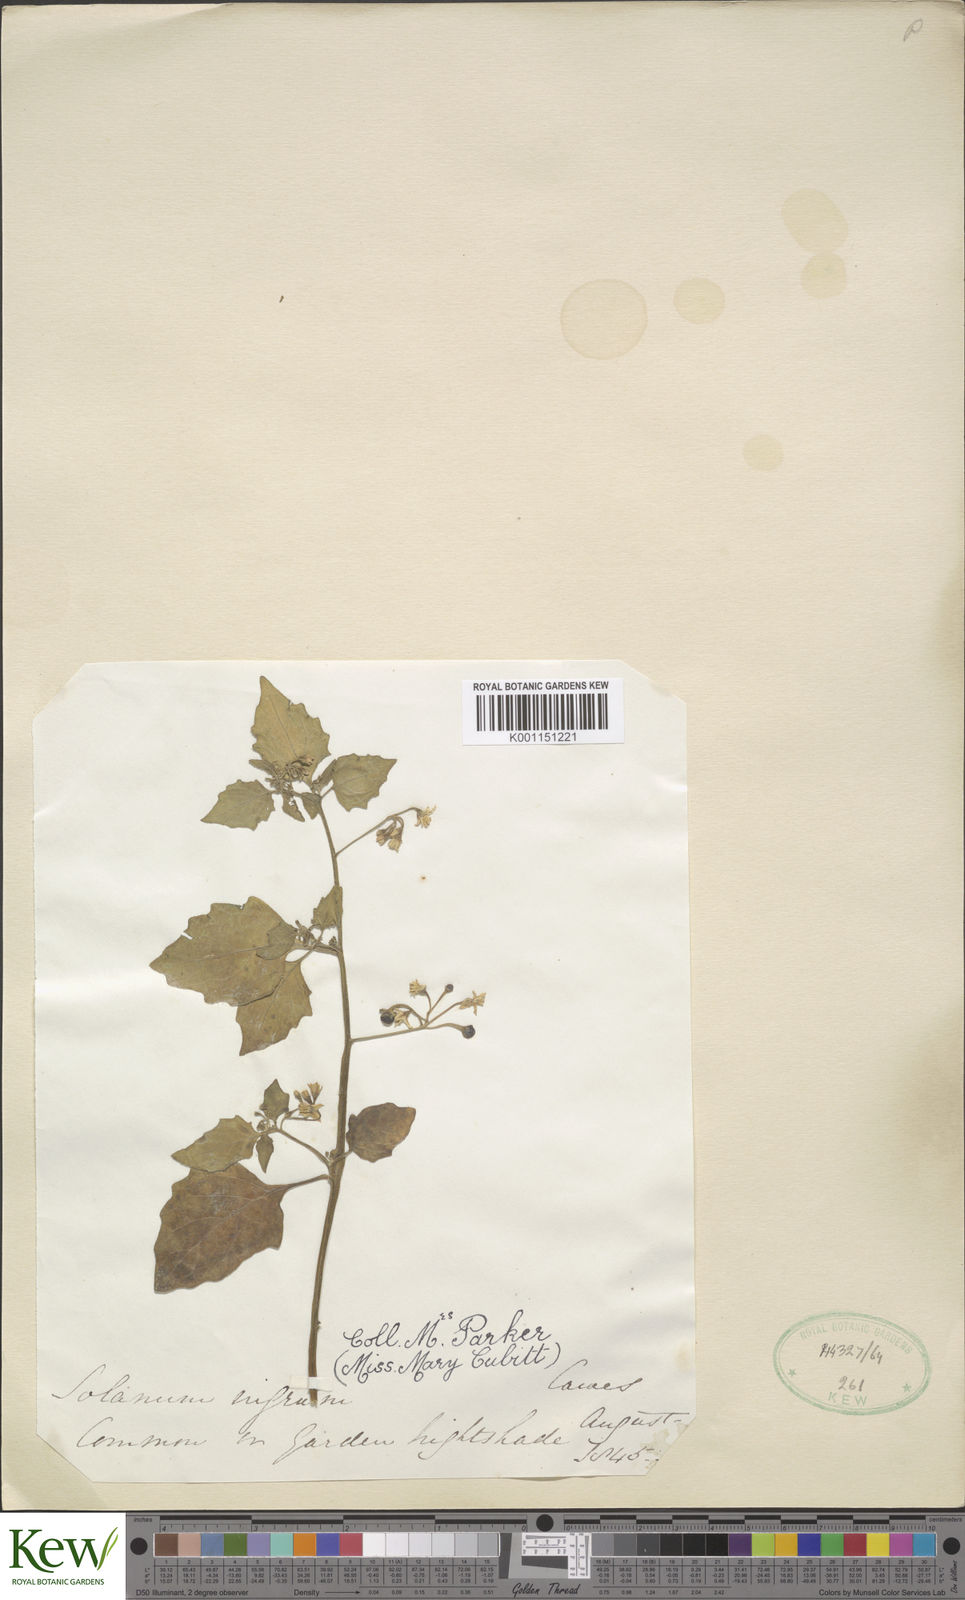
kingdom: Plantae
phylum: Tracheophyta
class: Magnoliopsida
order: Solanales
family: Solanaceae
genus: Solanum
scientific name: Solanum nigrum
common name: Black nightshade
